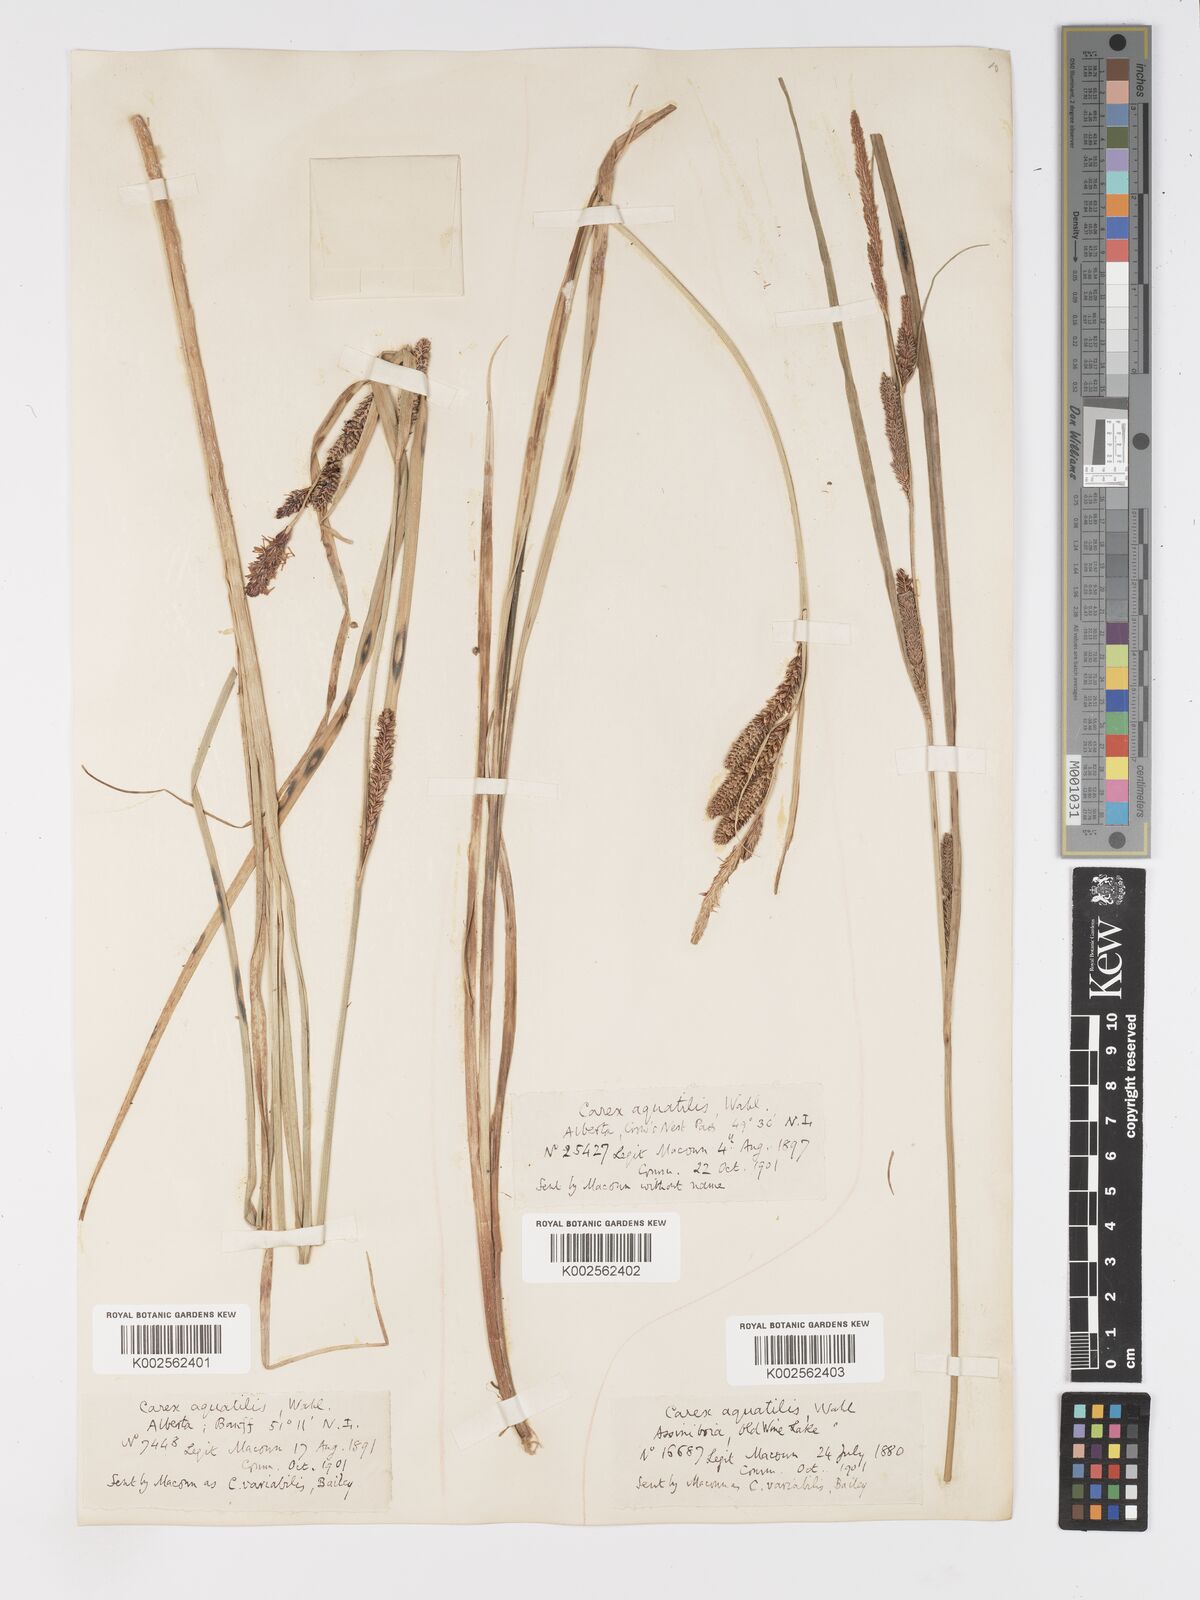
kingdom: Plantae
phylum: Tracheophyta
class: Liliopsida
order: Poales
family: Cyperaceae
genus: Carex
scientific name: Carex aquatilis
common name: Water sedge
